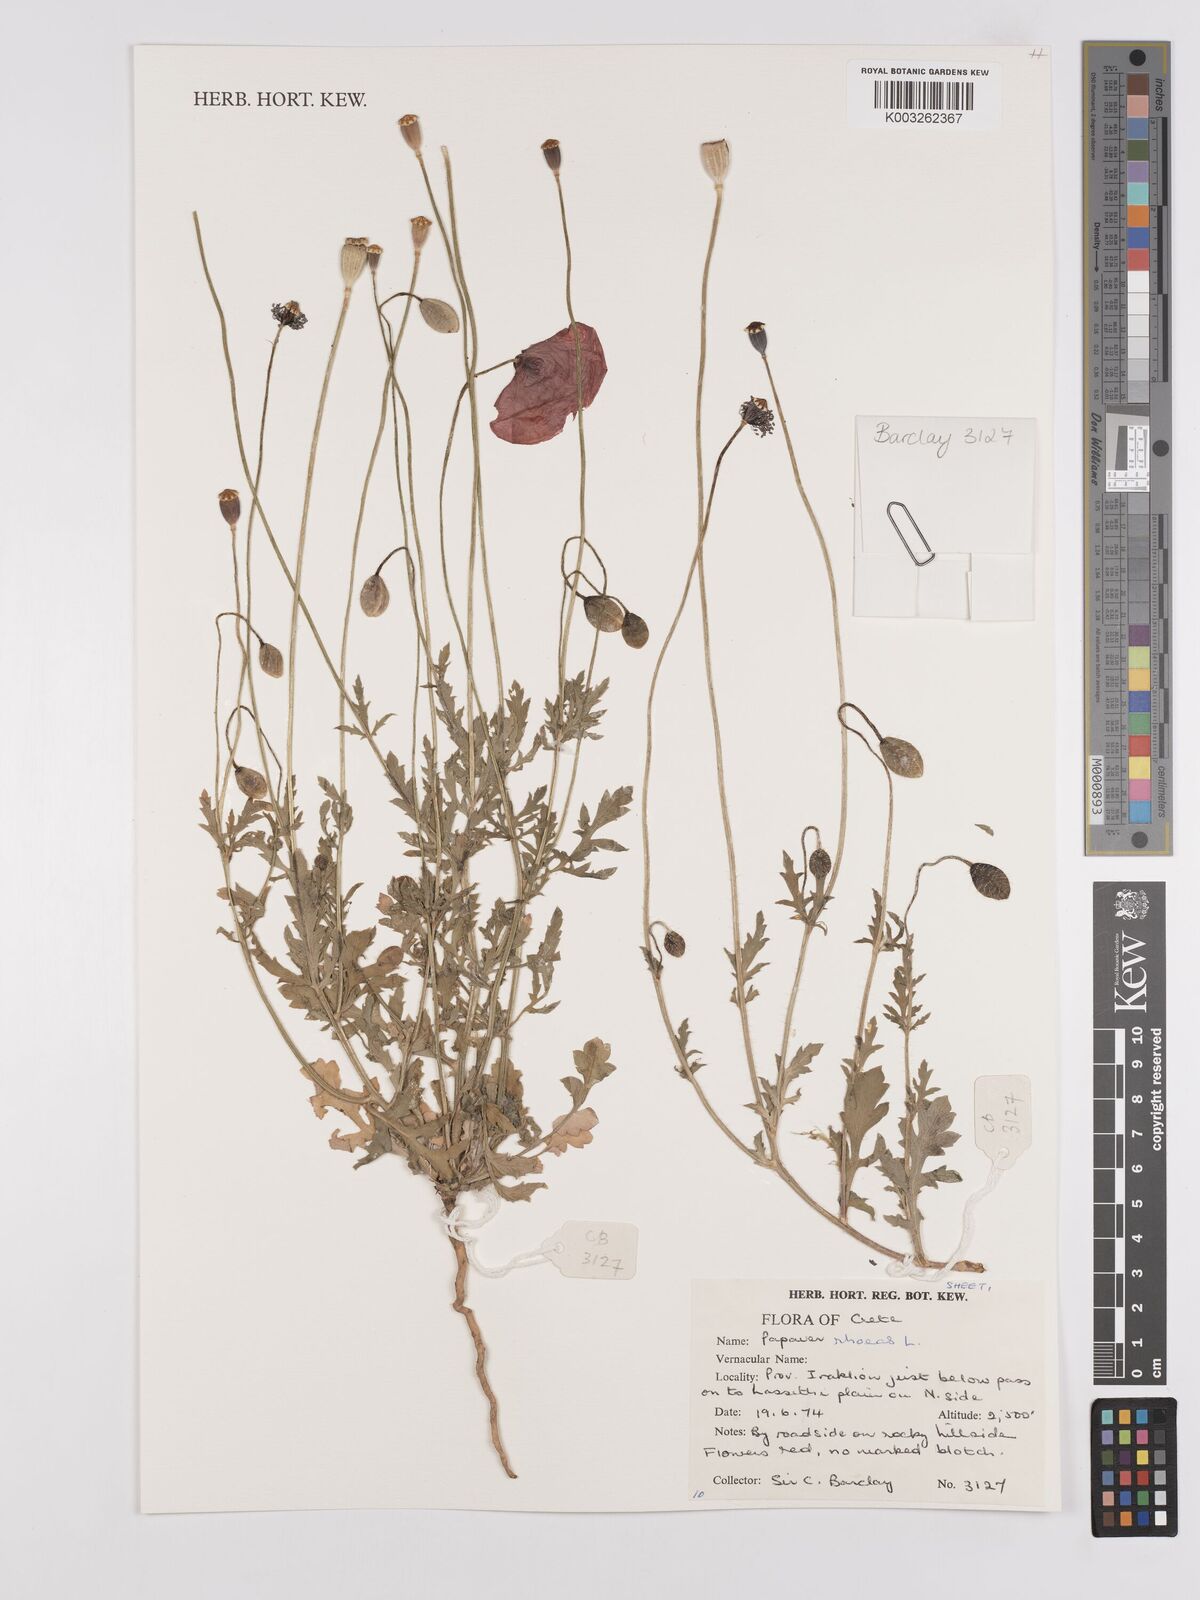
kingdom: Plantae
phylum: Tracheophyta
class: Magnoliopsida
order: Ranunculales
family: Papaveraceae
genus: Papaver
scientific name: Papaver rhoeas
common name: Corn poppy
